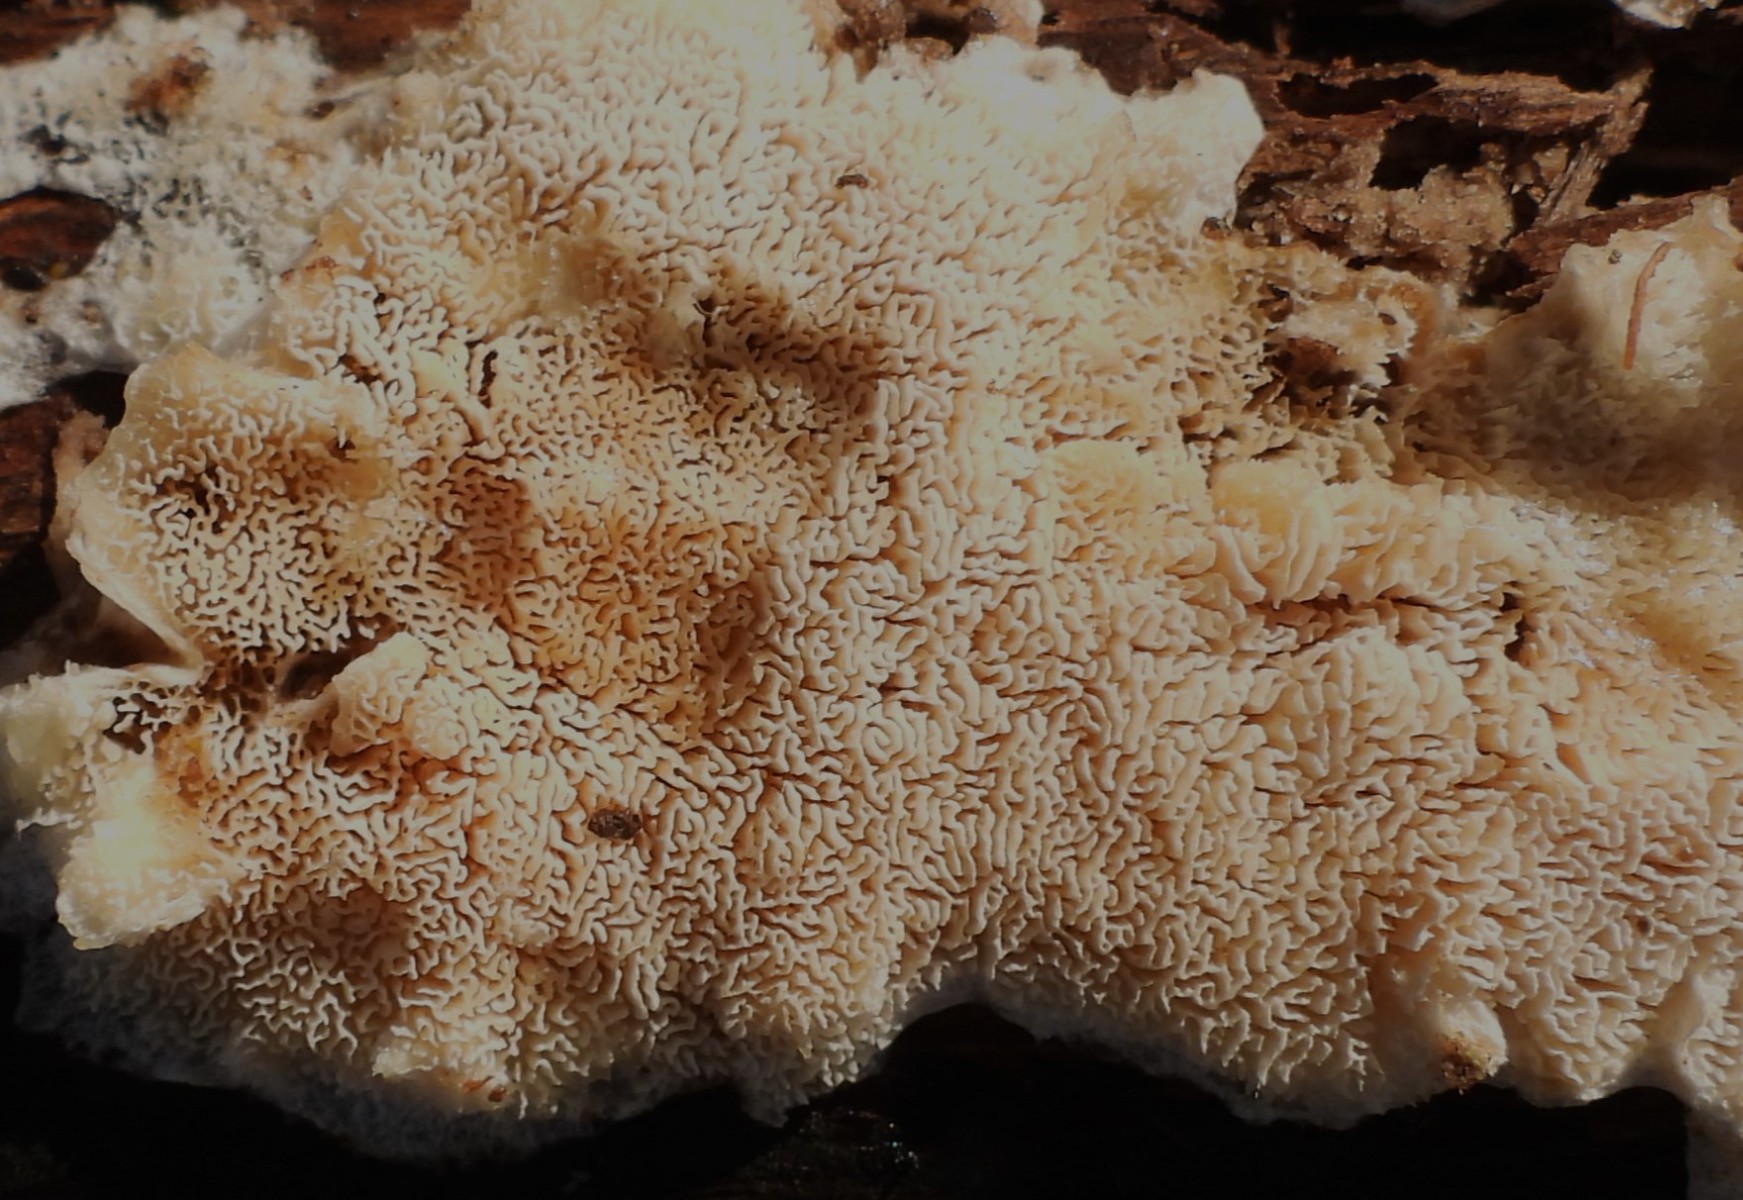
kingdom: Fungi
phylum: Basidiomycota
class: Agaricomycetes
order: Hymenochaetales
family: Schizoporaceae
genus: Xylodon
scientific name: Xylodon subtropicus
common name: labyrint-tandsvamp
